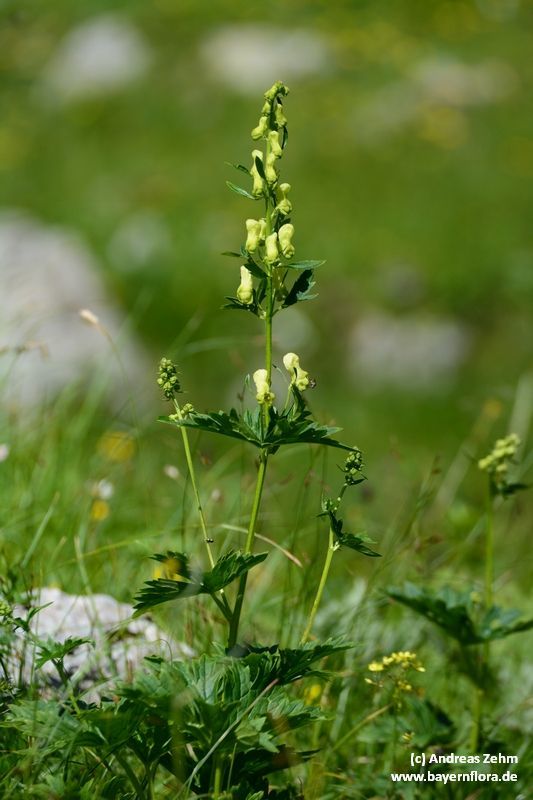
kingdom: Plantae
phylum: Tracheophyta
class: Magnoliopsida
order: Ranunculales
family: Ranunculaceae
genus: Aconitum
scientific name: Aconitum lycoctonum
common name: Wolf's-bane
